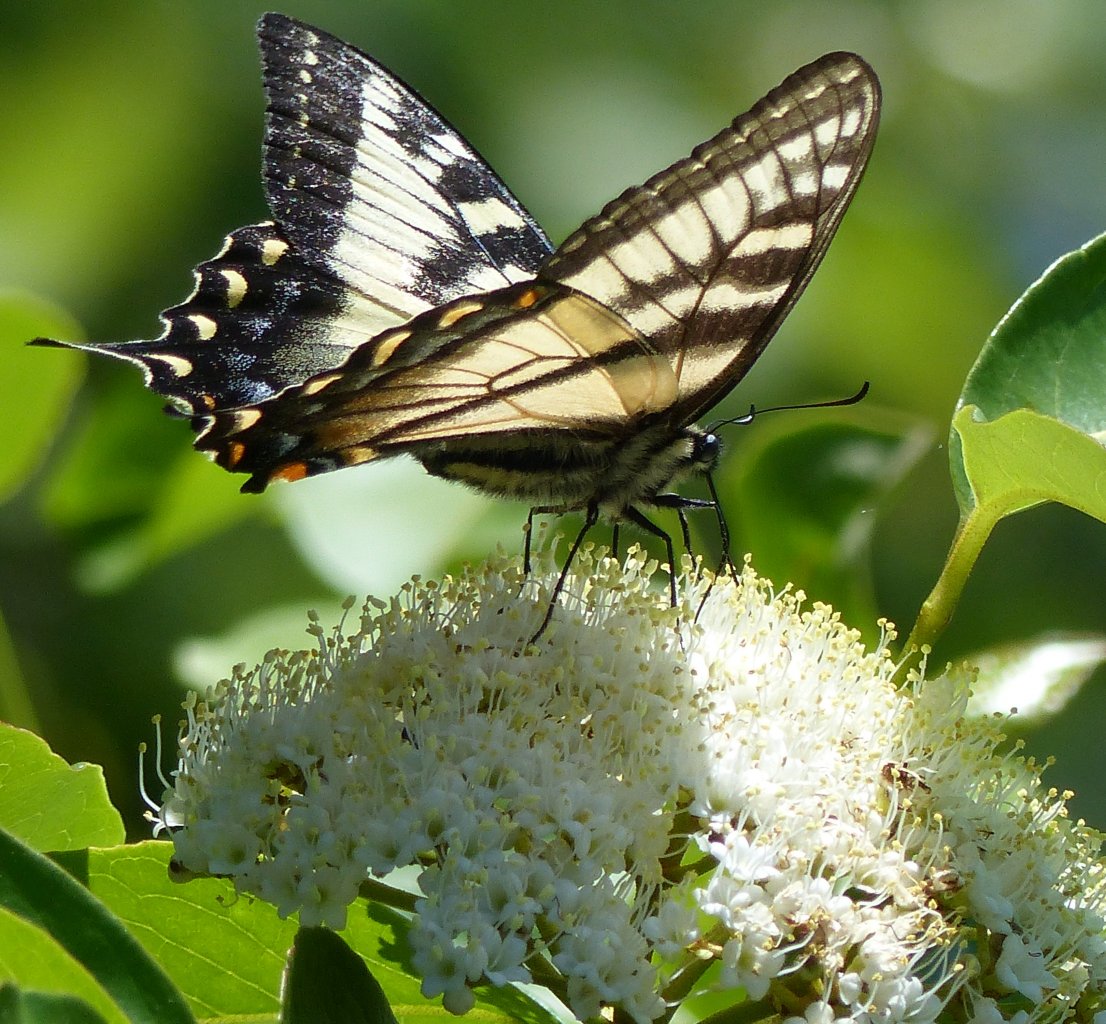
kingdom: Animalia
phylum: Arthropoda
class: Insecta
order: Lepidoptera
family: Papilionidae
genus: Pterourus
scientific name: Pterourus glaucus
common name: Eastern Tiger Swallowtail
